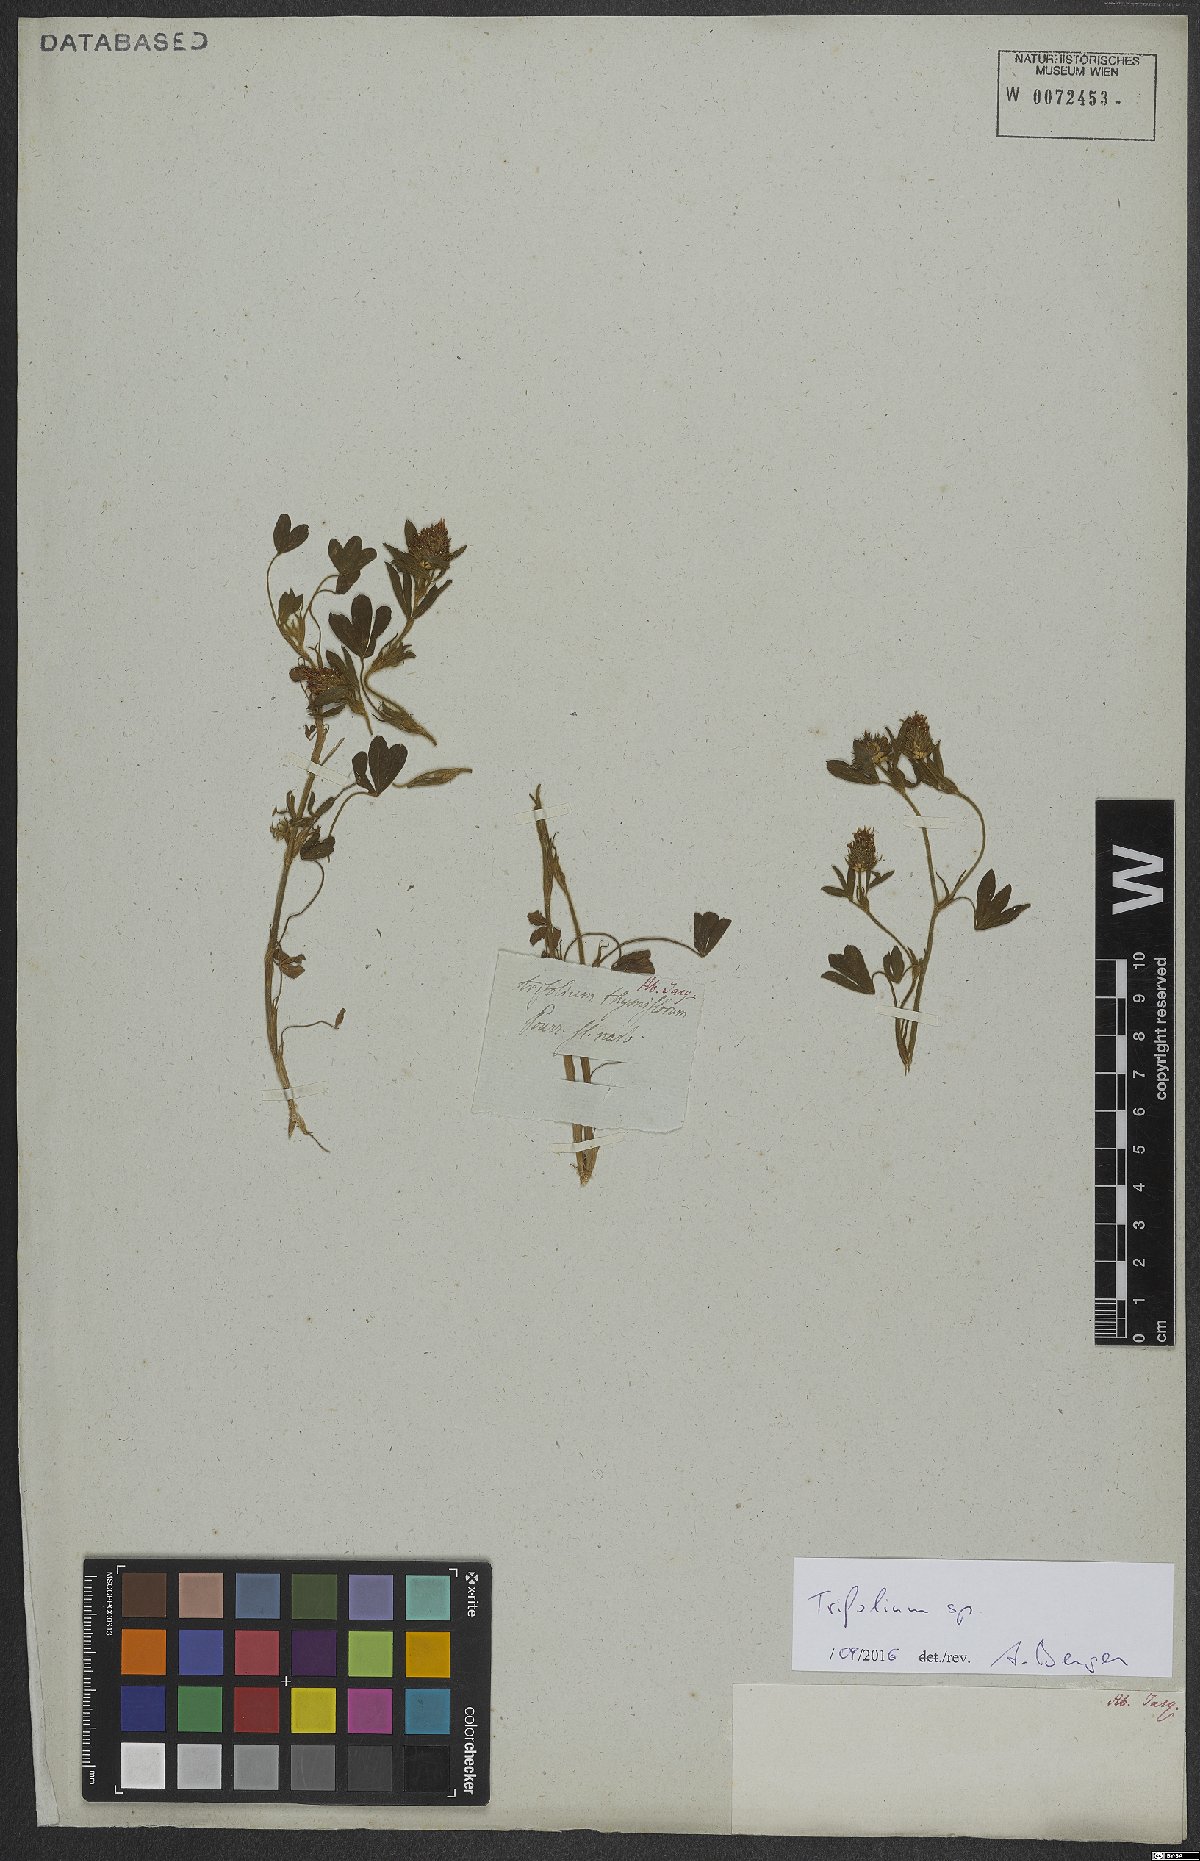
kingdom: Plantae
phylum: Tracheophyta
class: Magnoliopsida
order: Fabales
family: Fabaceae
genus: Trifolium
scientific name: Trifolium
